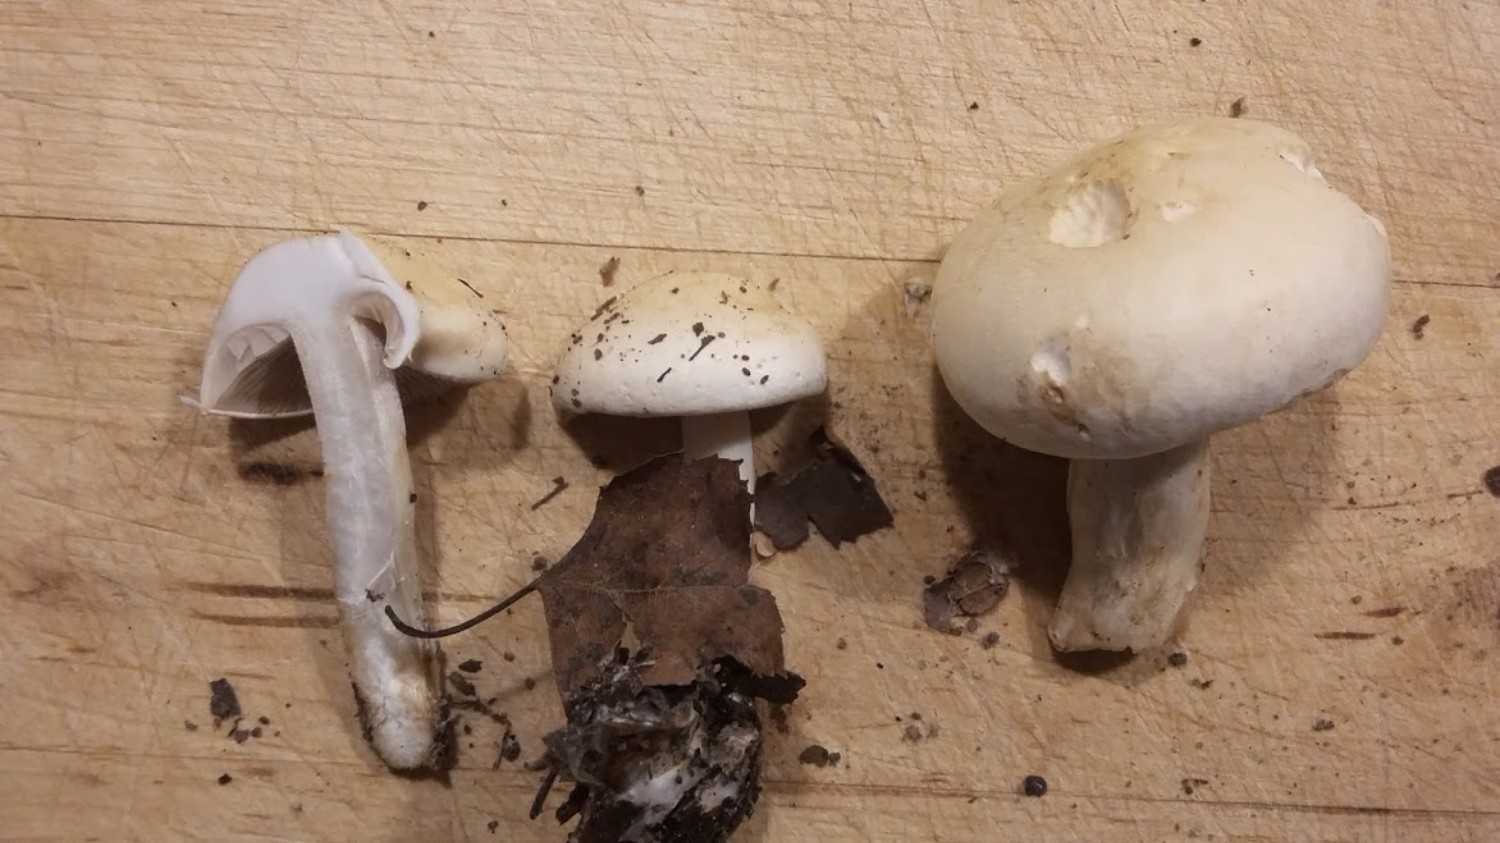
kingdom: Fungi
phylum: Basidiomycota
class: Agaricomycetes
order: Agaricales
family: Hymenogastraceae
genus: Hebeloma
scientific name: Hebeloma
